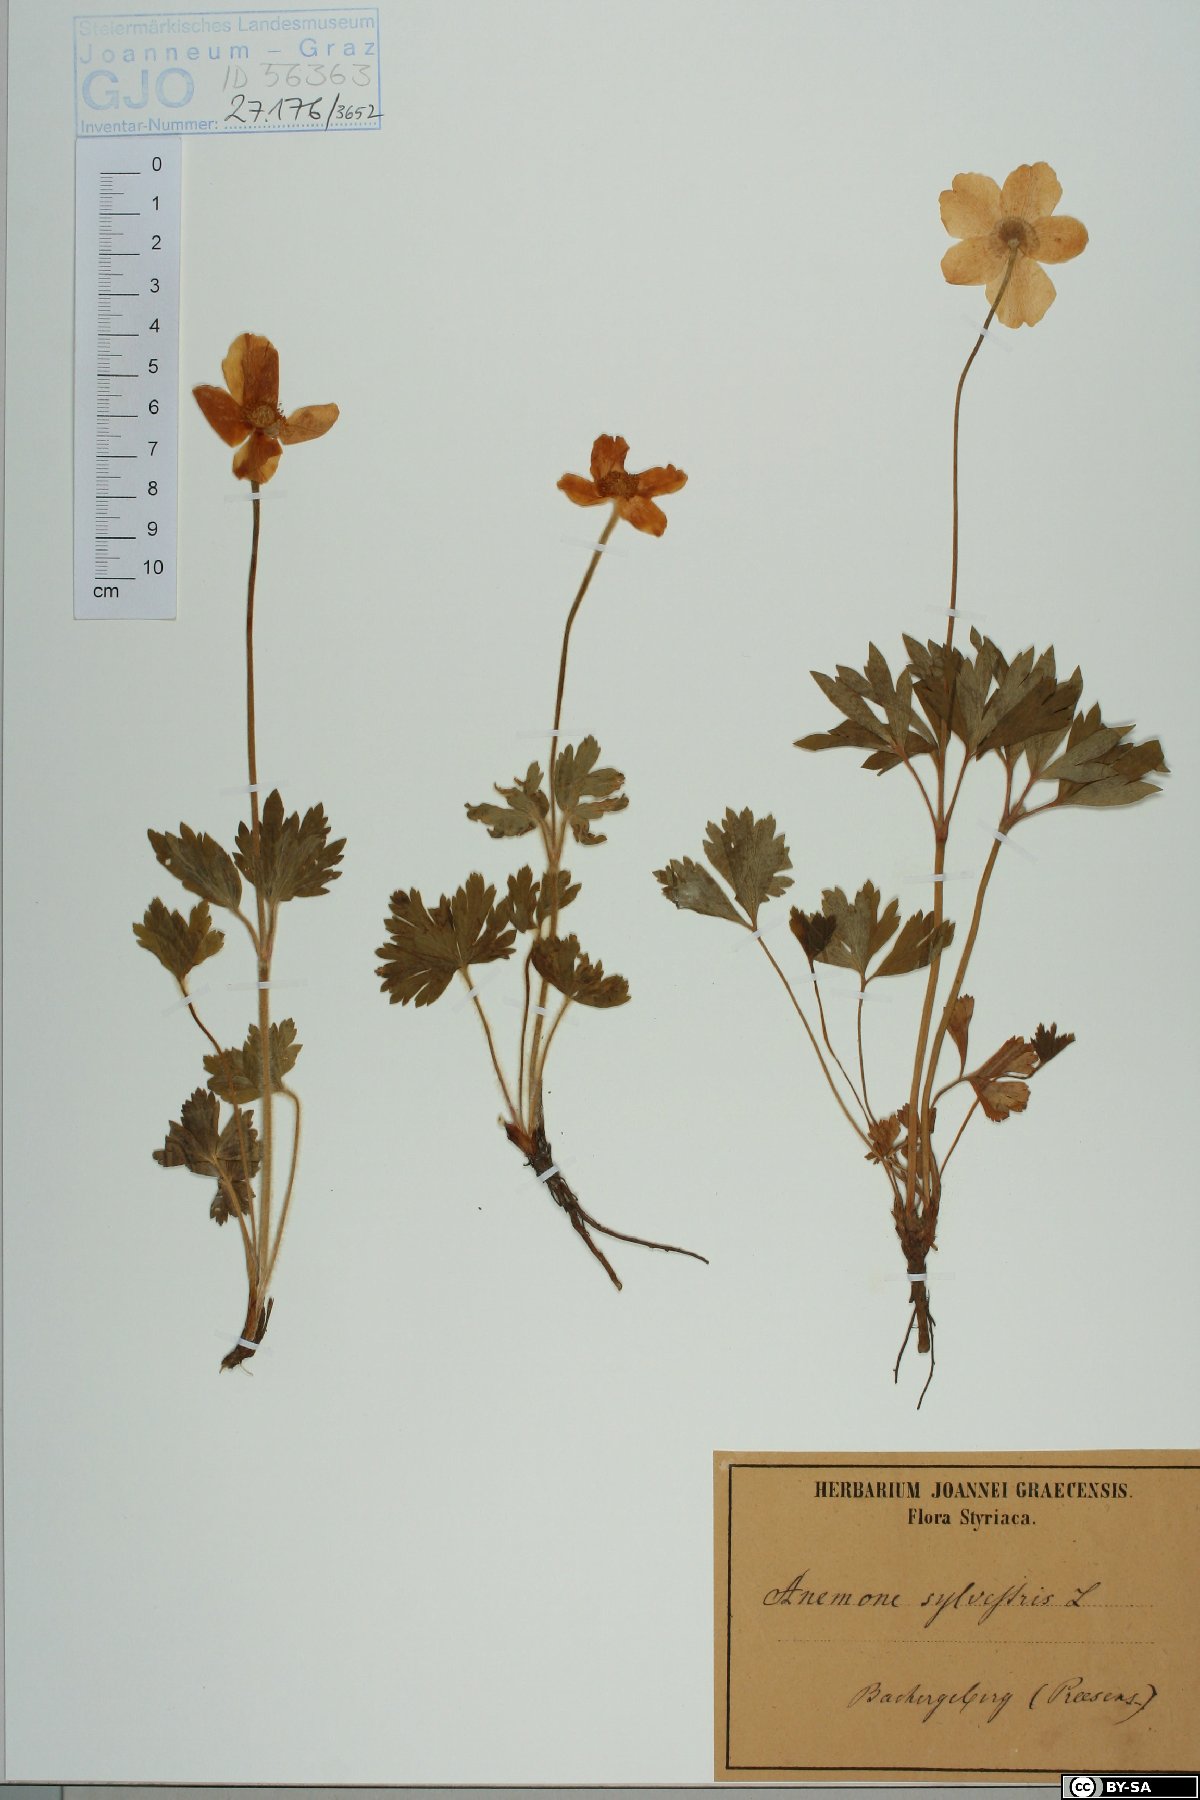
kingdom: Plantae
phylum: Tracheophyta
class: Magnoliopsida
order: Ranunculales
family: Ranunculaceae
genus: Anemone
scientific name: Anemone sylvestris
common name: Snowdrop anemone
